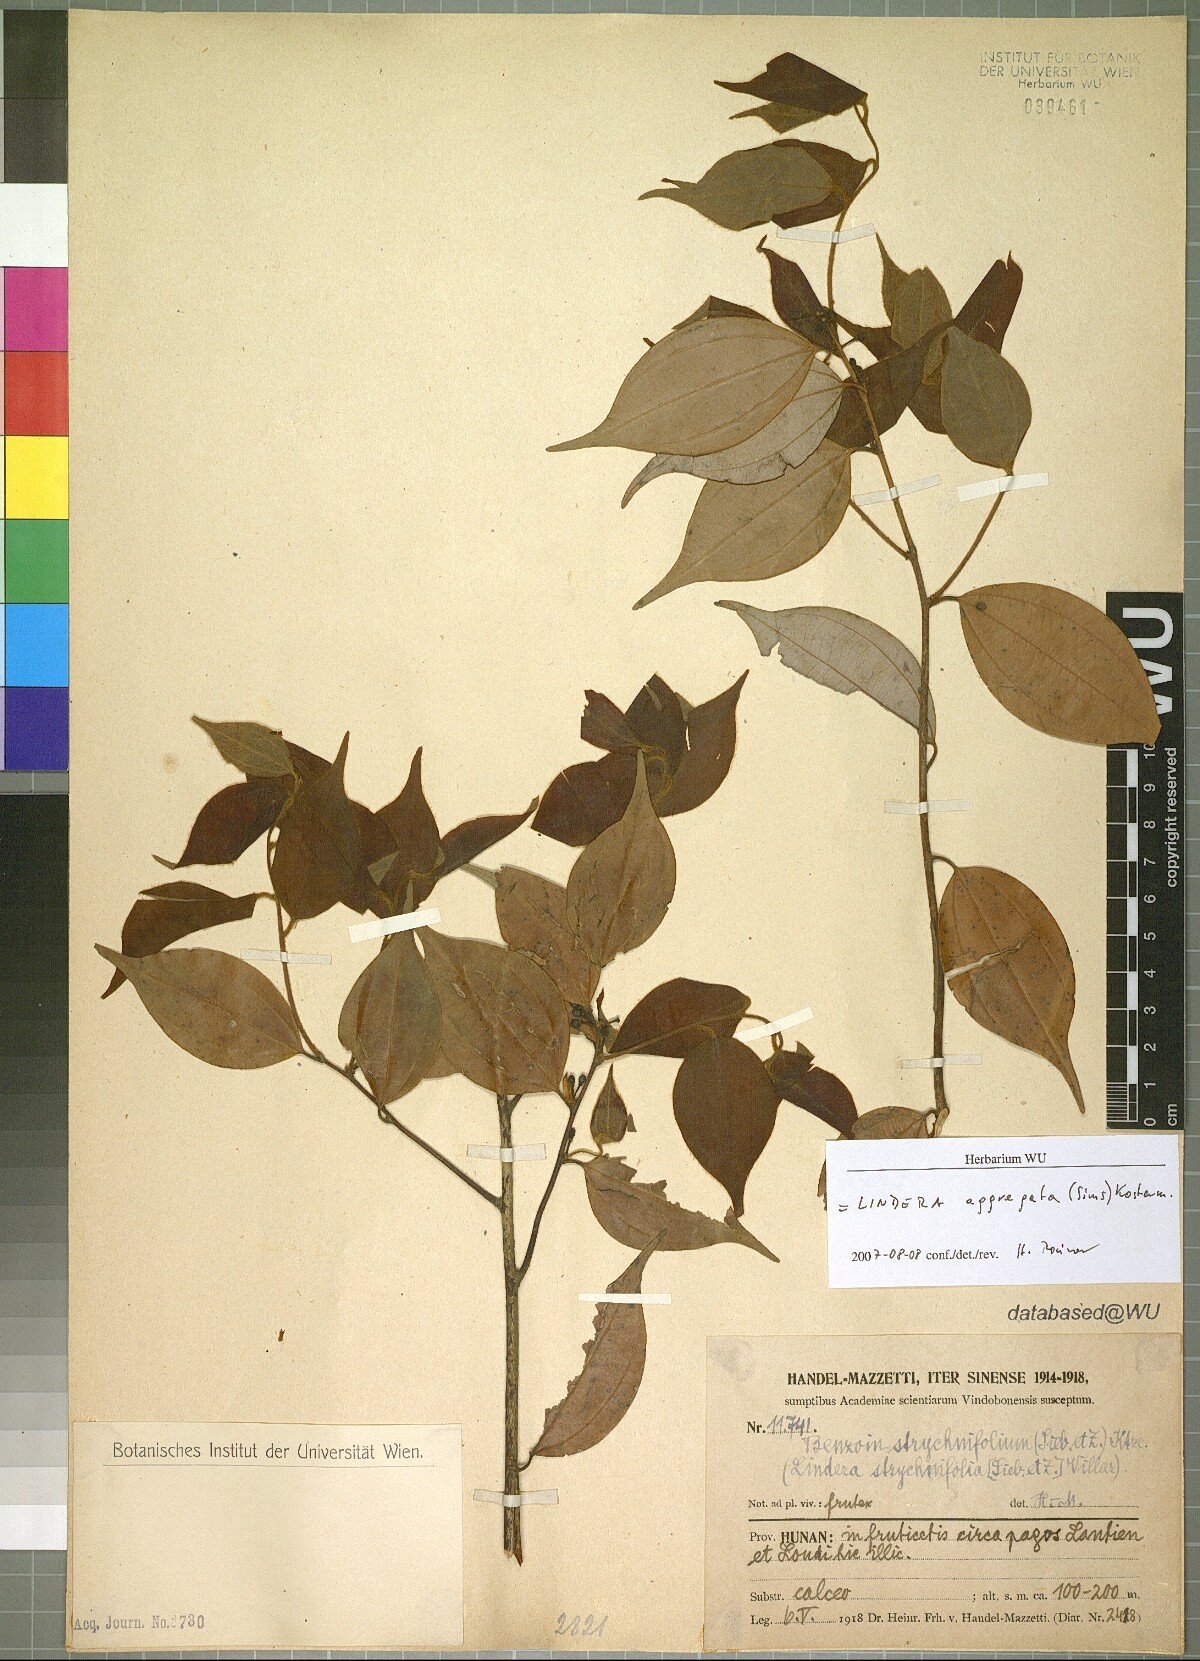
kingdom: Plantae
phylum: Tracheophyta
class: Magnoliopsida
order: Laurales
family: Lauraceae
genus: Lindera
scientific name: Lindera aggregata
